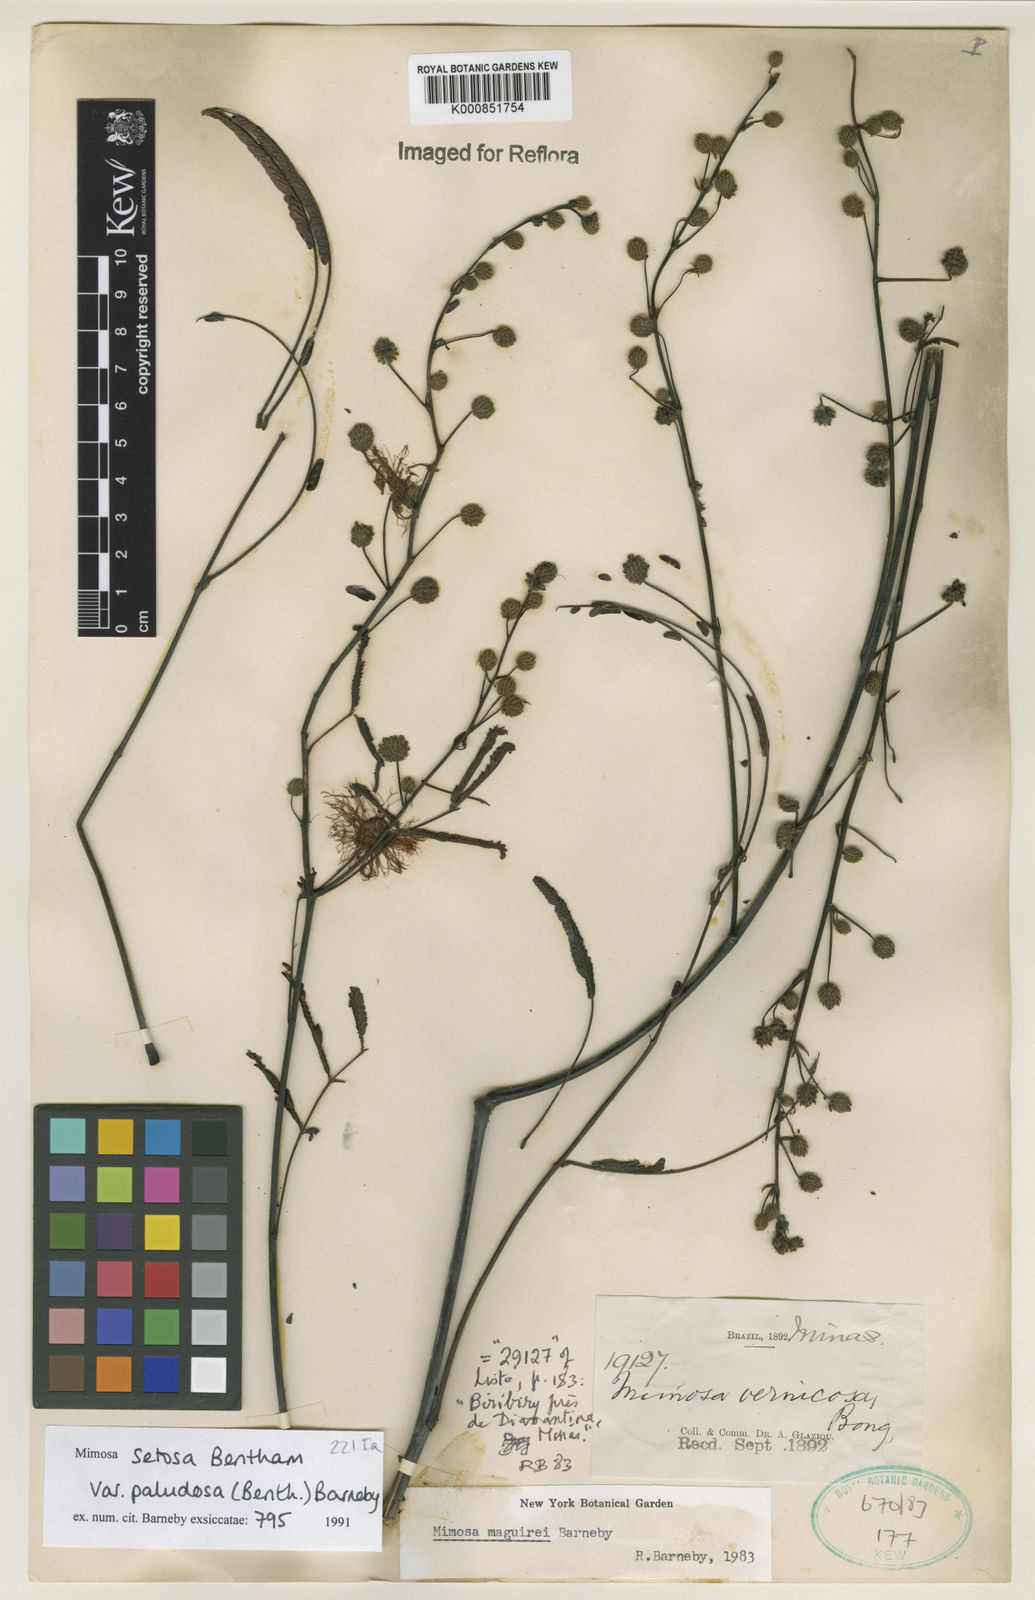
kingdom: Plantae
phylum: Tracheophyta
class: Magnoliopsida
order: Fabales
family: Fabaceae
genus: Mimosa
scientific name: Mimosa maguirei
